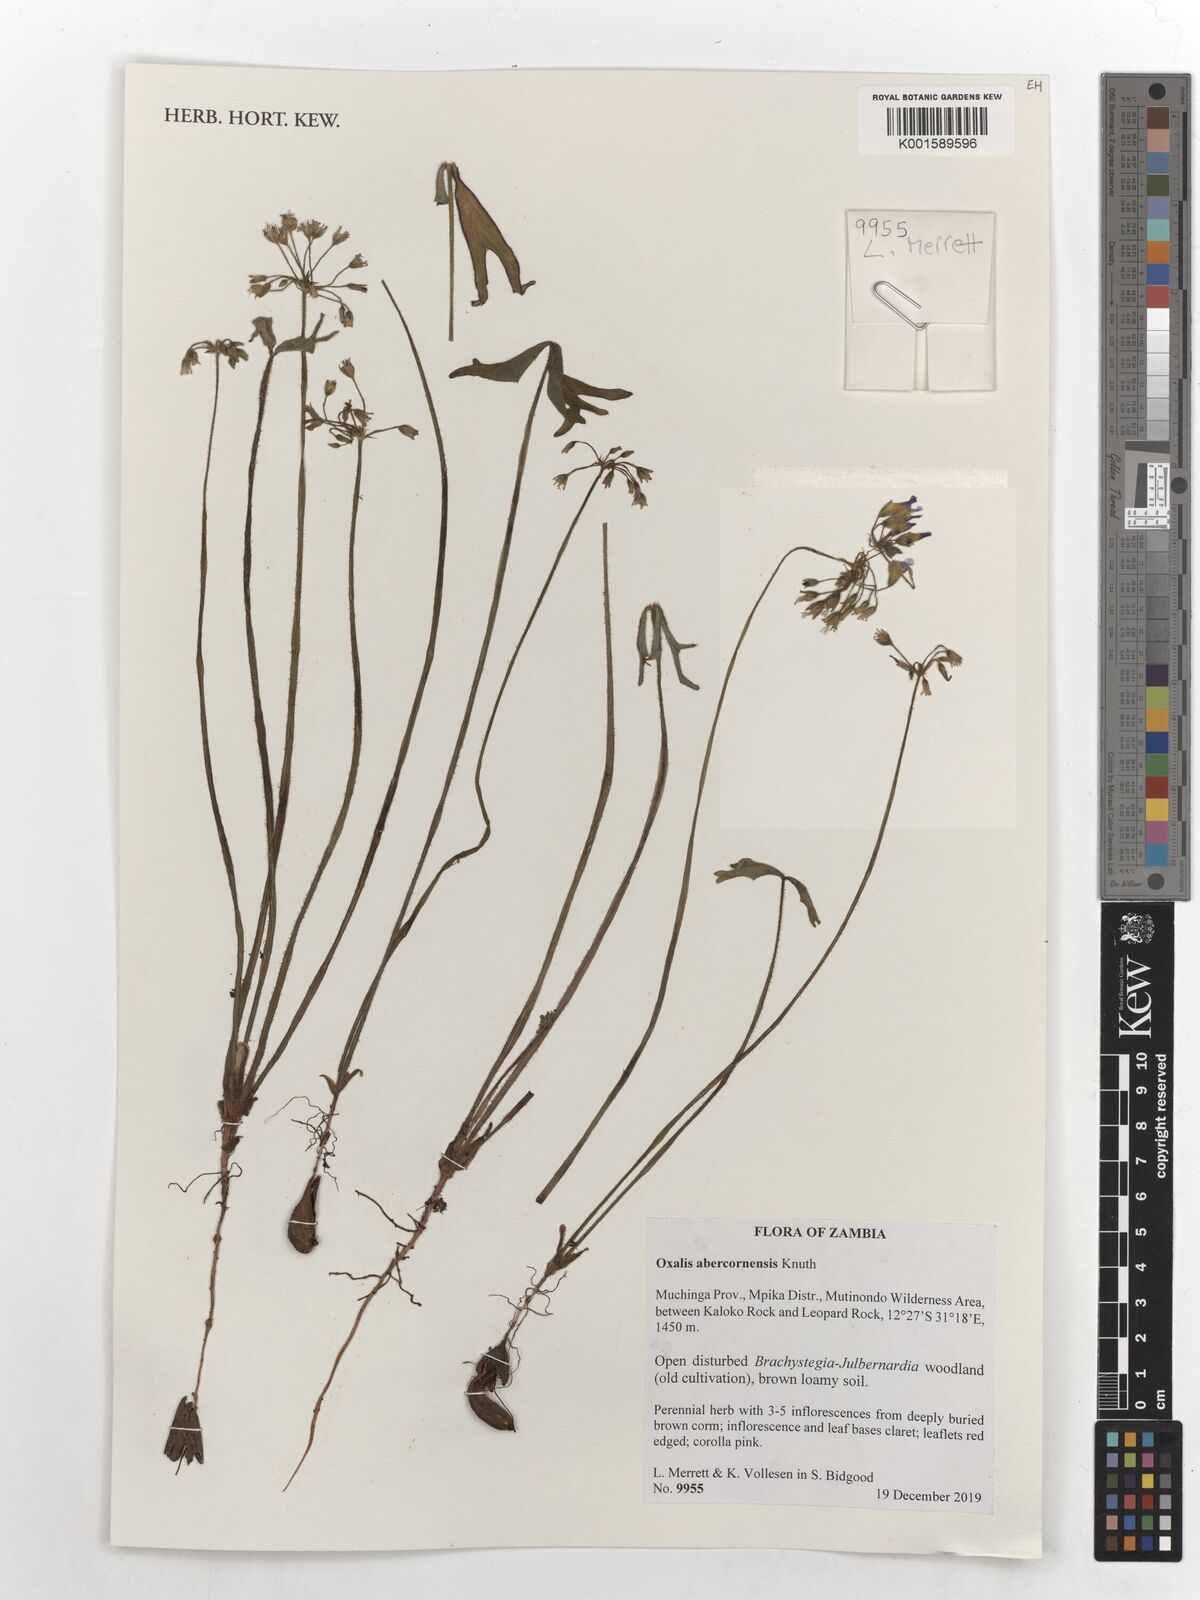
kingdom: Plantae
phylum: Tracheophyta
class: Magnoliopsida
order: Oxalidales
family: Oxalidaceae
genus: Oxalis
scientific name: Oxalis abercornensis
